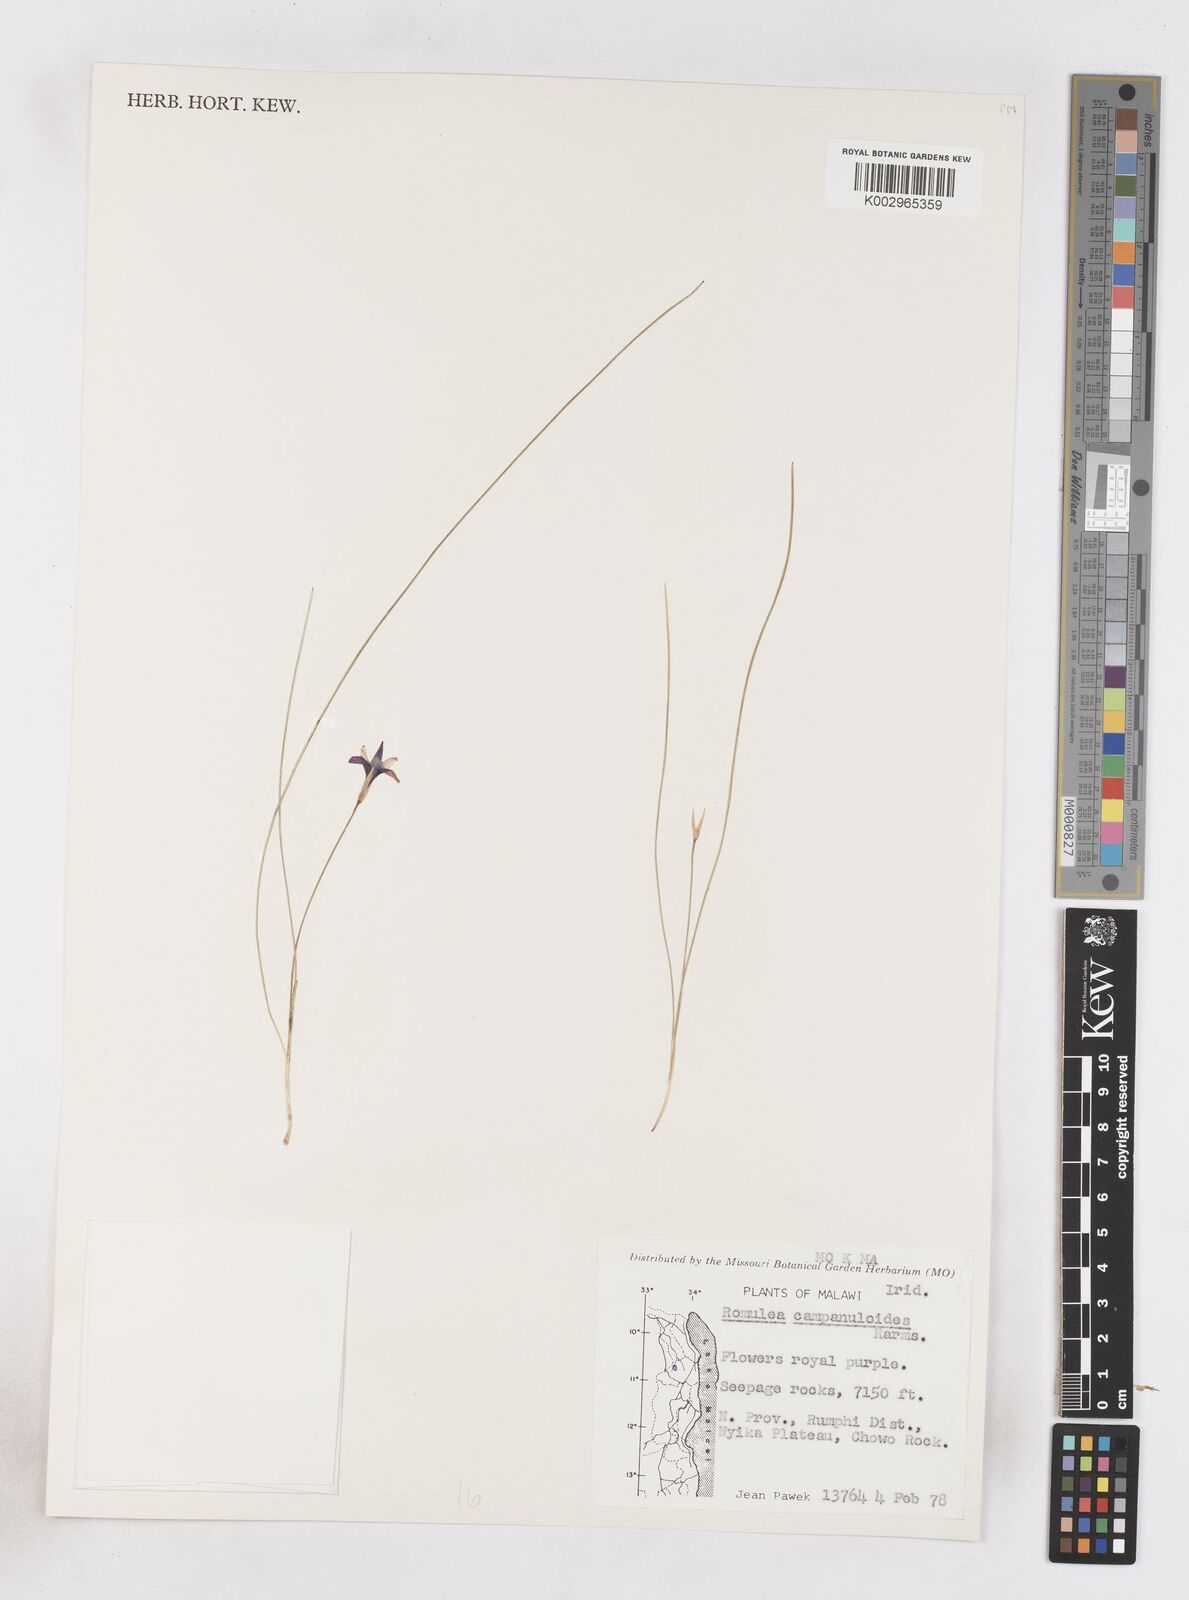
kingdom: Plantae
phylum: Tracheophyta
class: Liliopsida
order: Asparagales
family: Iridaceae
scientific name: Iridaceae
